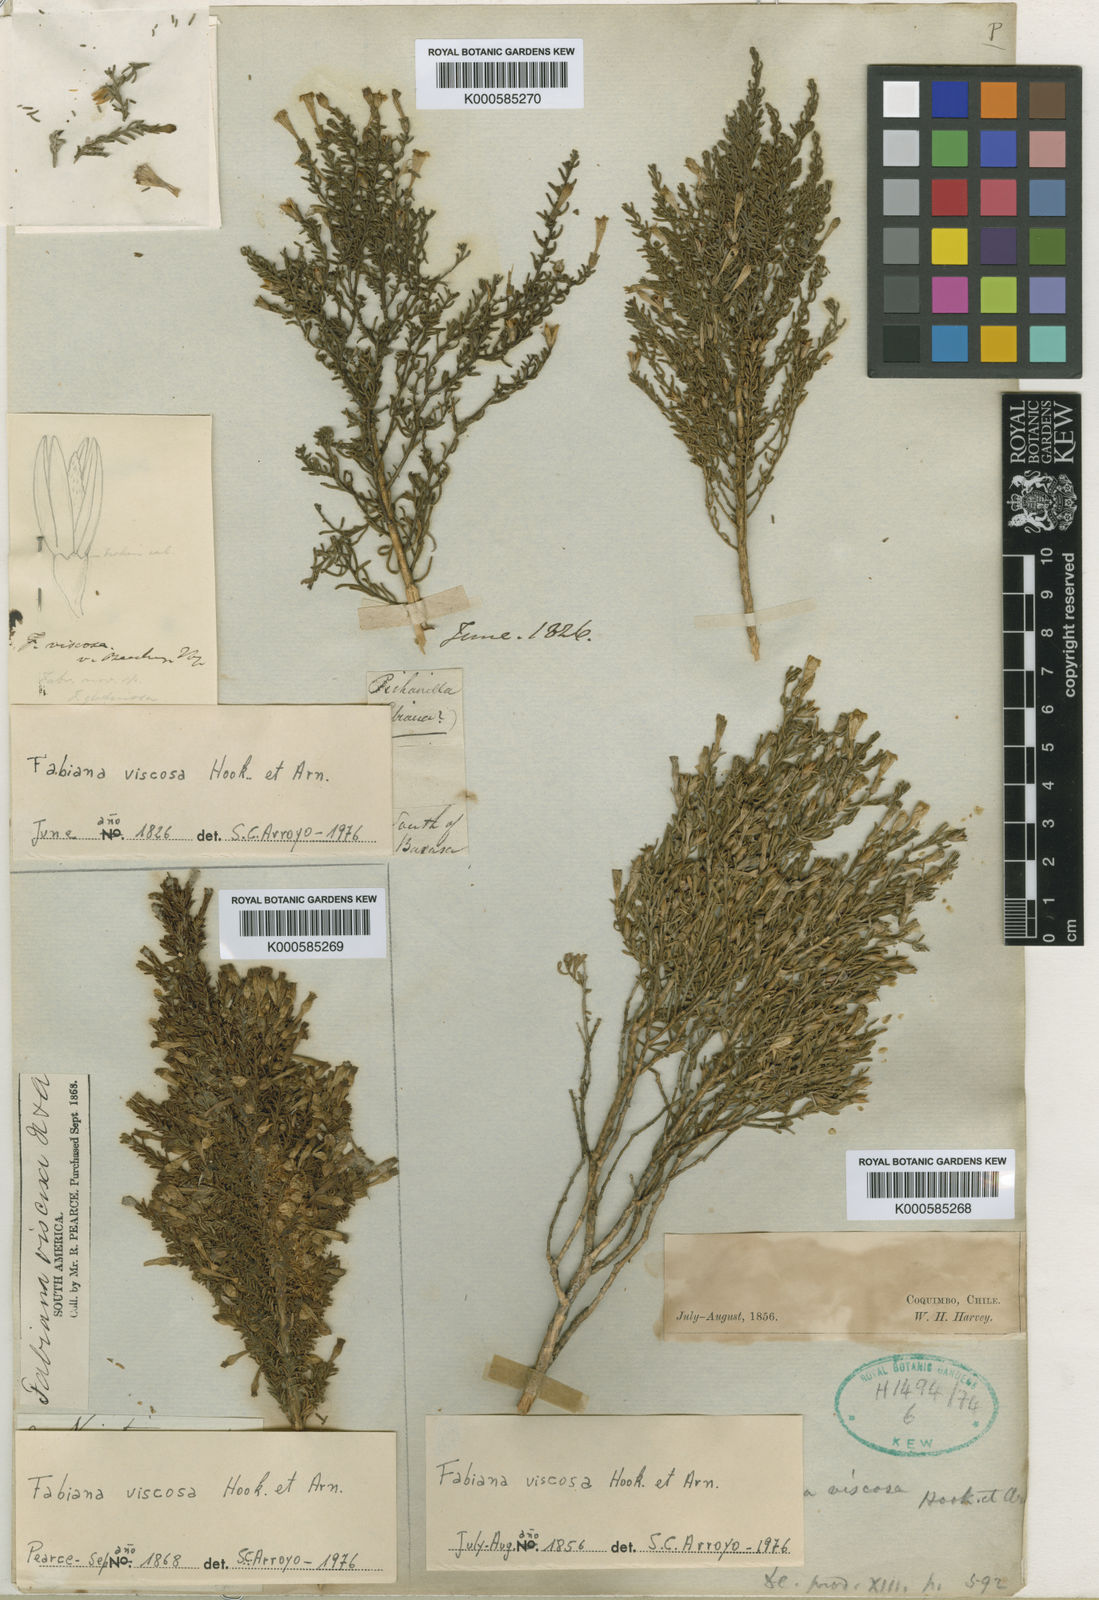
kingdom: Plantae
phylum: Tracheophyta
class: Magnoliopsida
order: Solanales
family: Solanaceae
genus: Fabiana
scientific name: Fabiana viscosa
